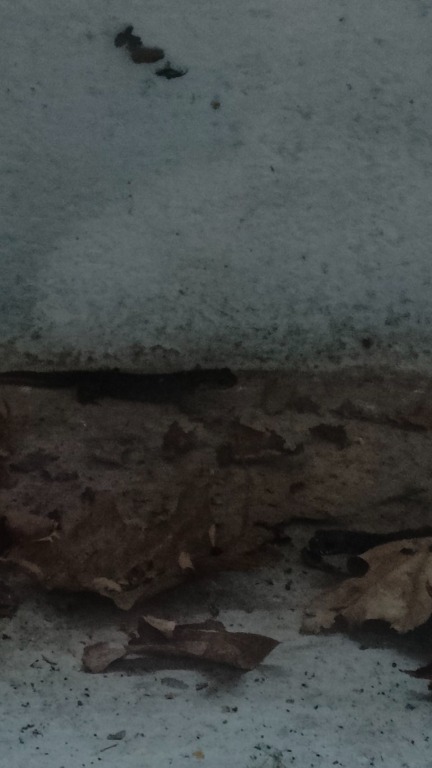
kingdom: Animalia
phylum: Chordata
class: Amphibia
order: Caudata
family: Salamandridae
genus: Triturus
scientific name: Triturus cristatus
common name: Stor vandsalamander
